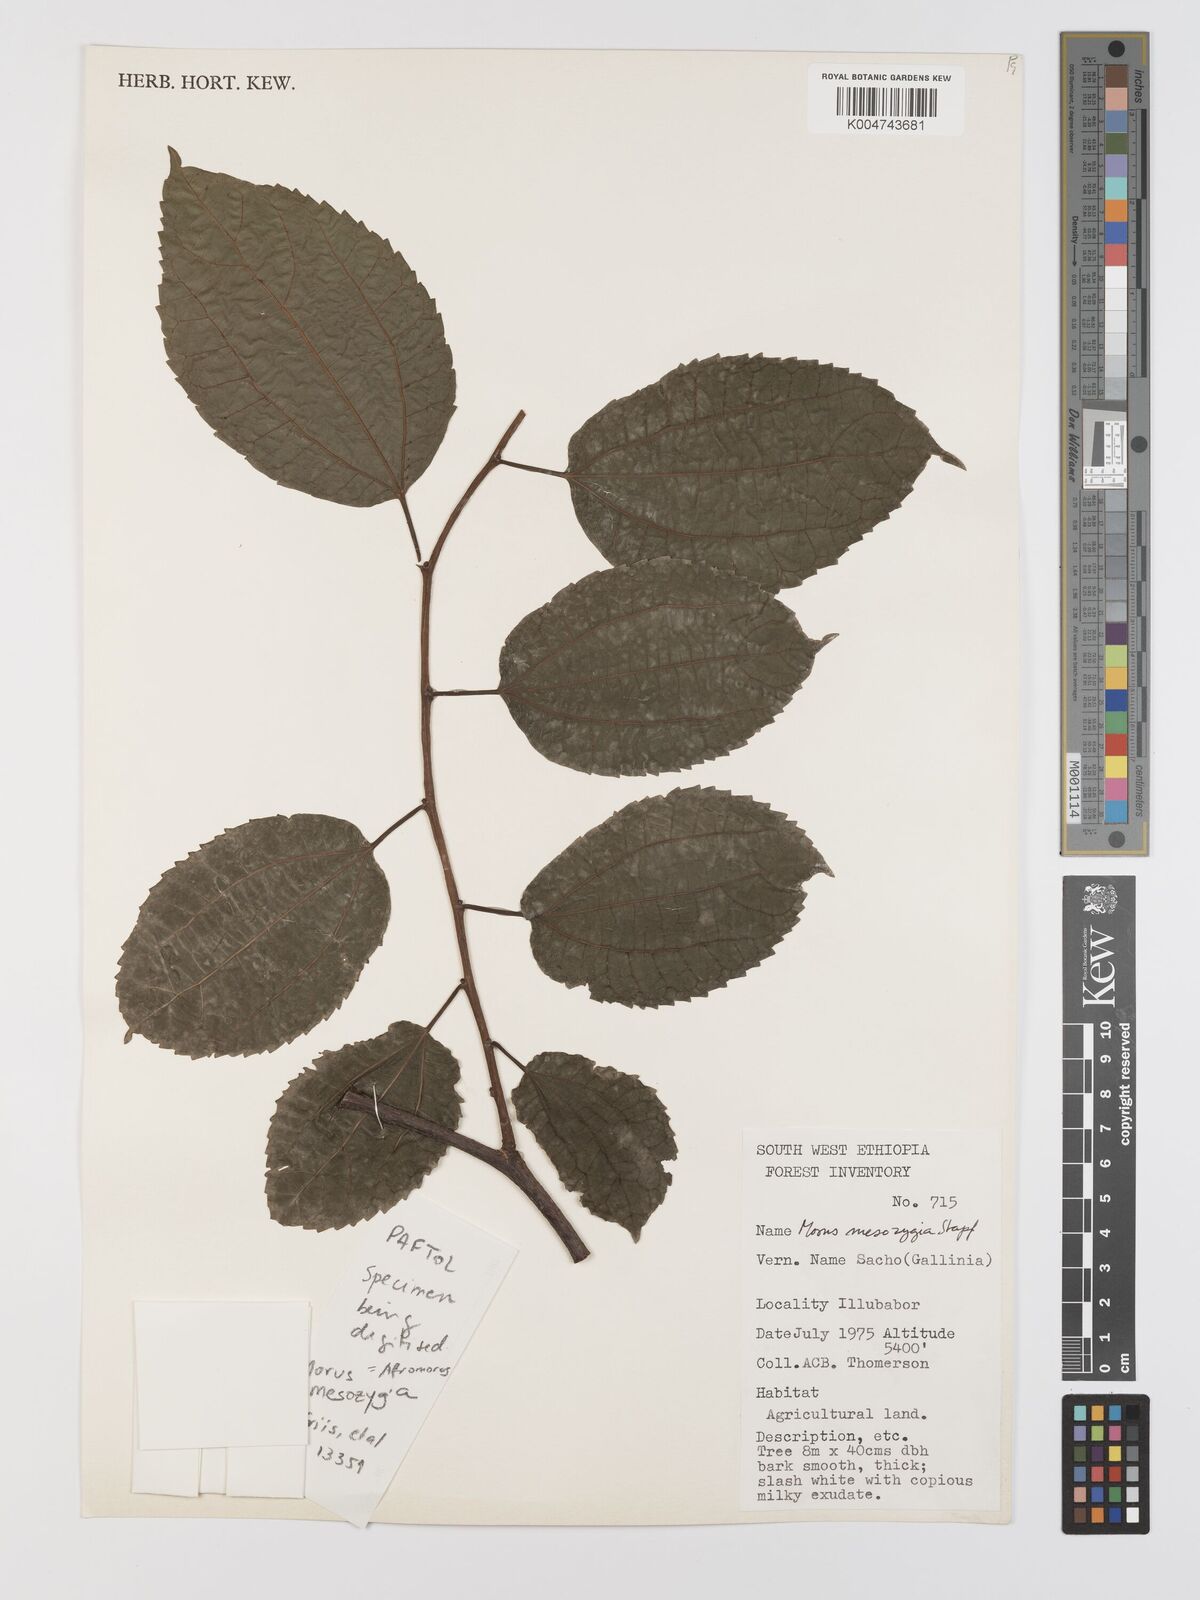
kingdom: Plantae
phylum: Tracheophyta
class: Magnoliopsida
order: Rosales
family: Moraceae
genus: Afromorus
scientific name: Afromorus mesozygia
